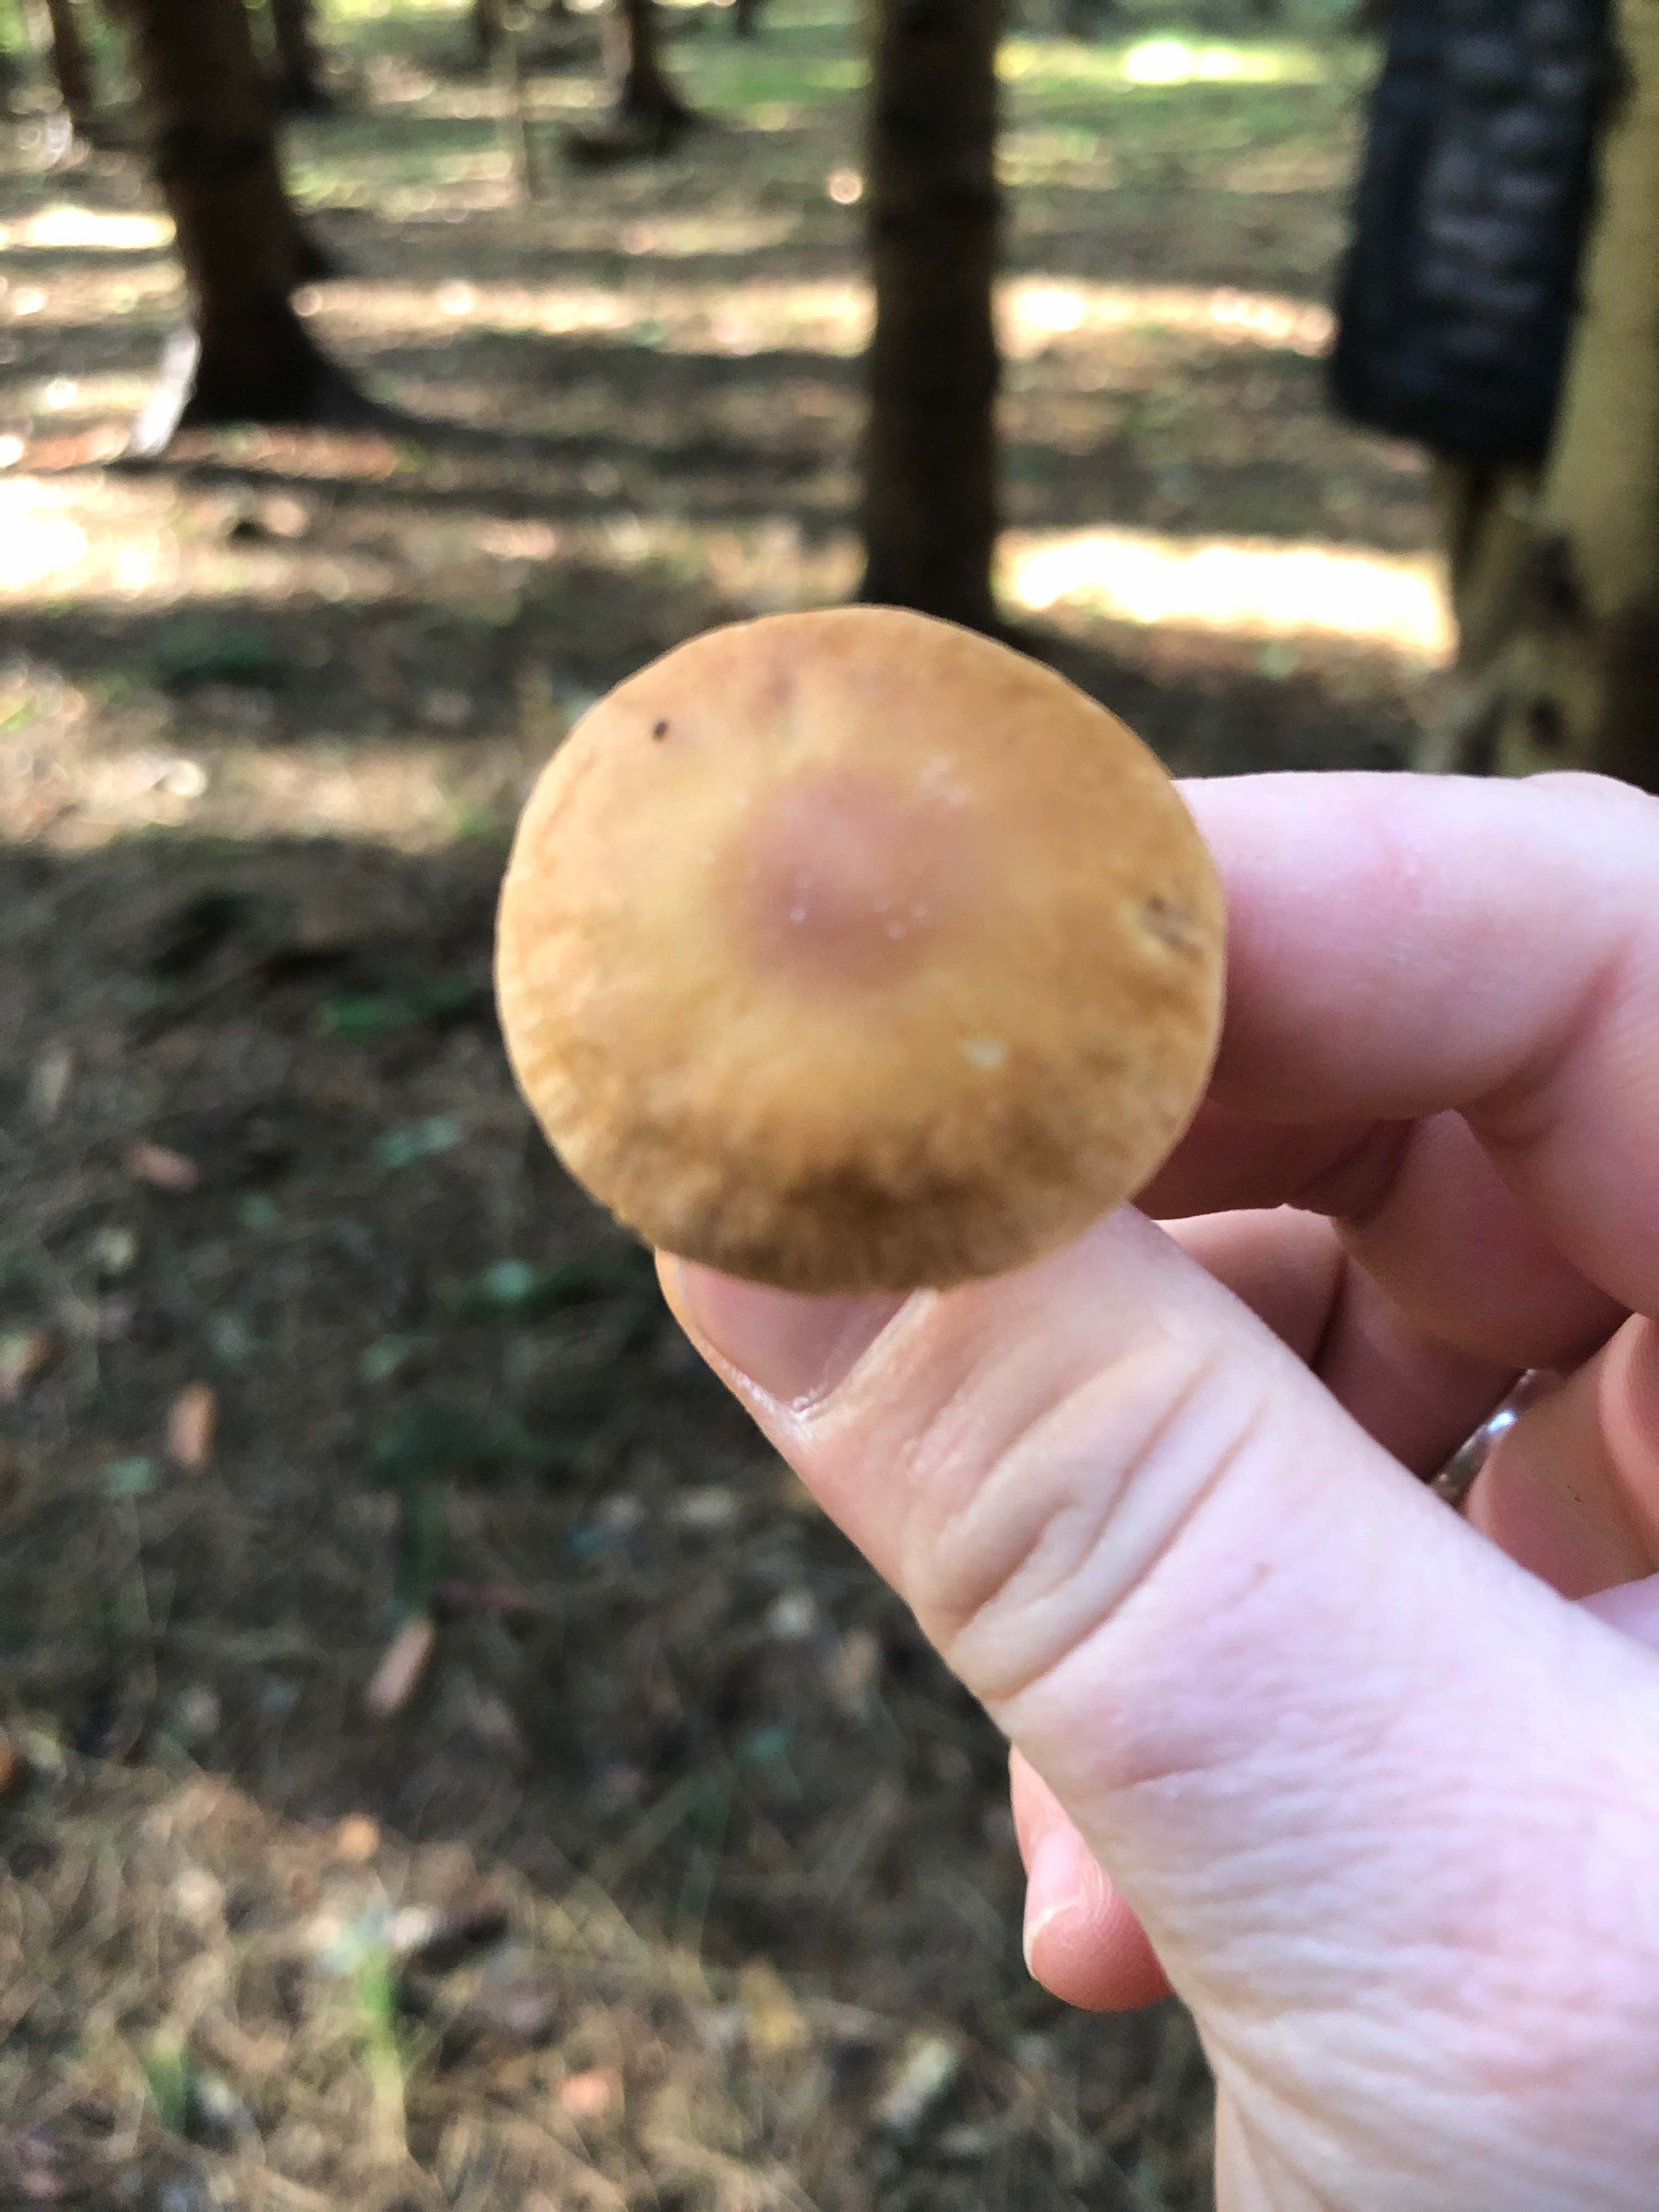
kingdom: Fungi
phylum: Basidiomycota
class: Agaricomycetes
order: Agaricales
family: Omphalotaceae
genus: Collybiopsis
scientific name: Collybiopsis peronata
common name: bestøvlet fladhat
